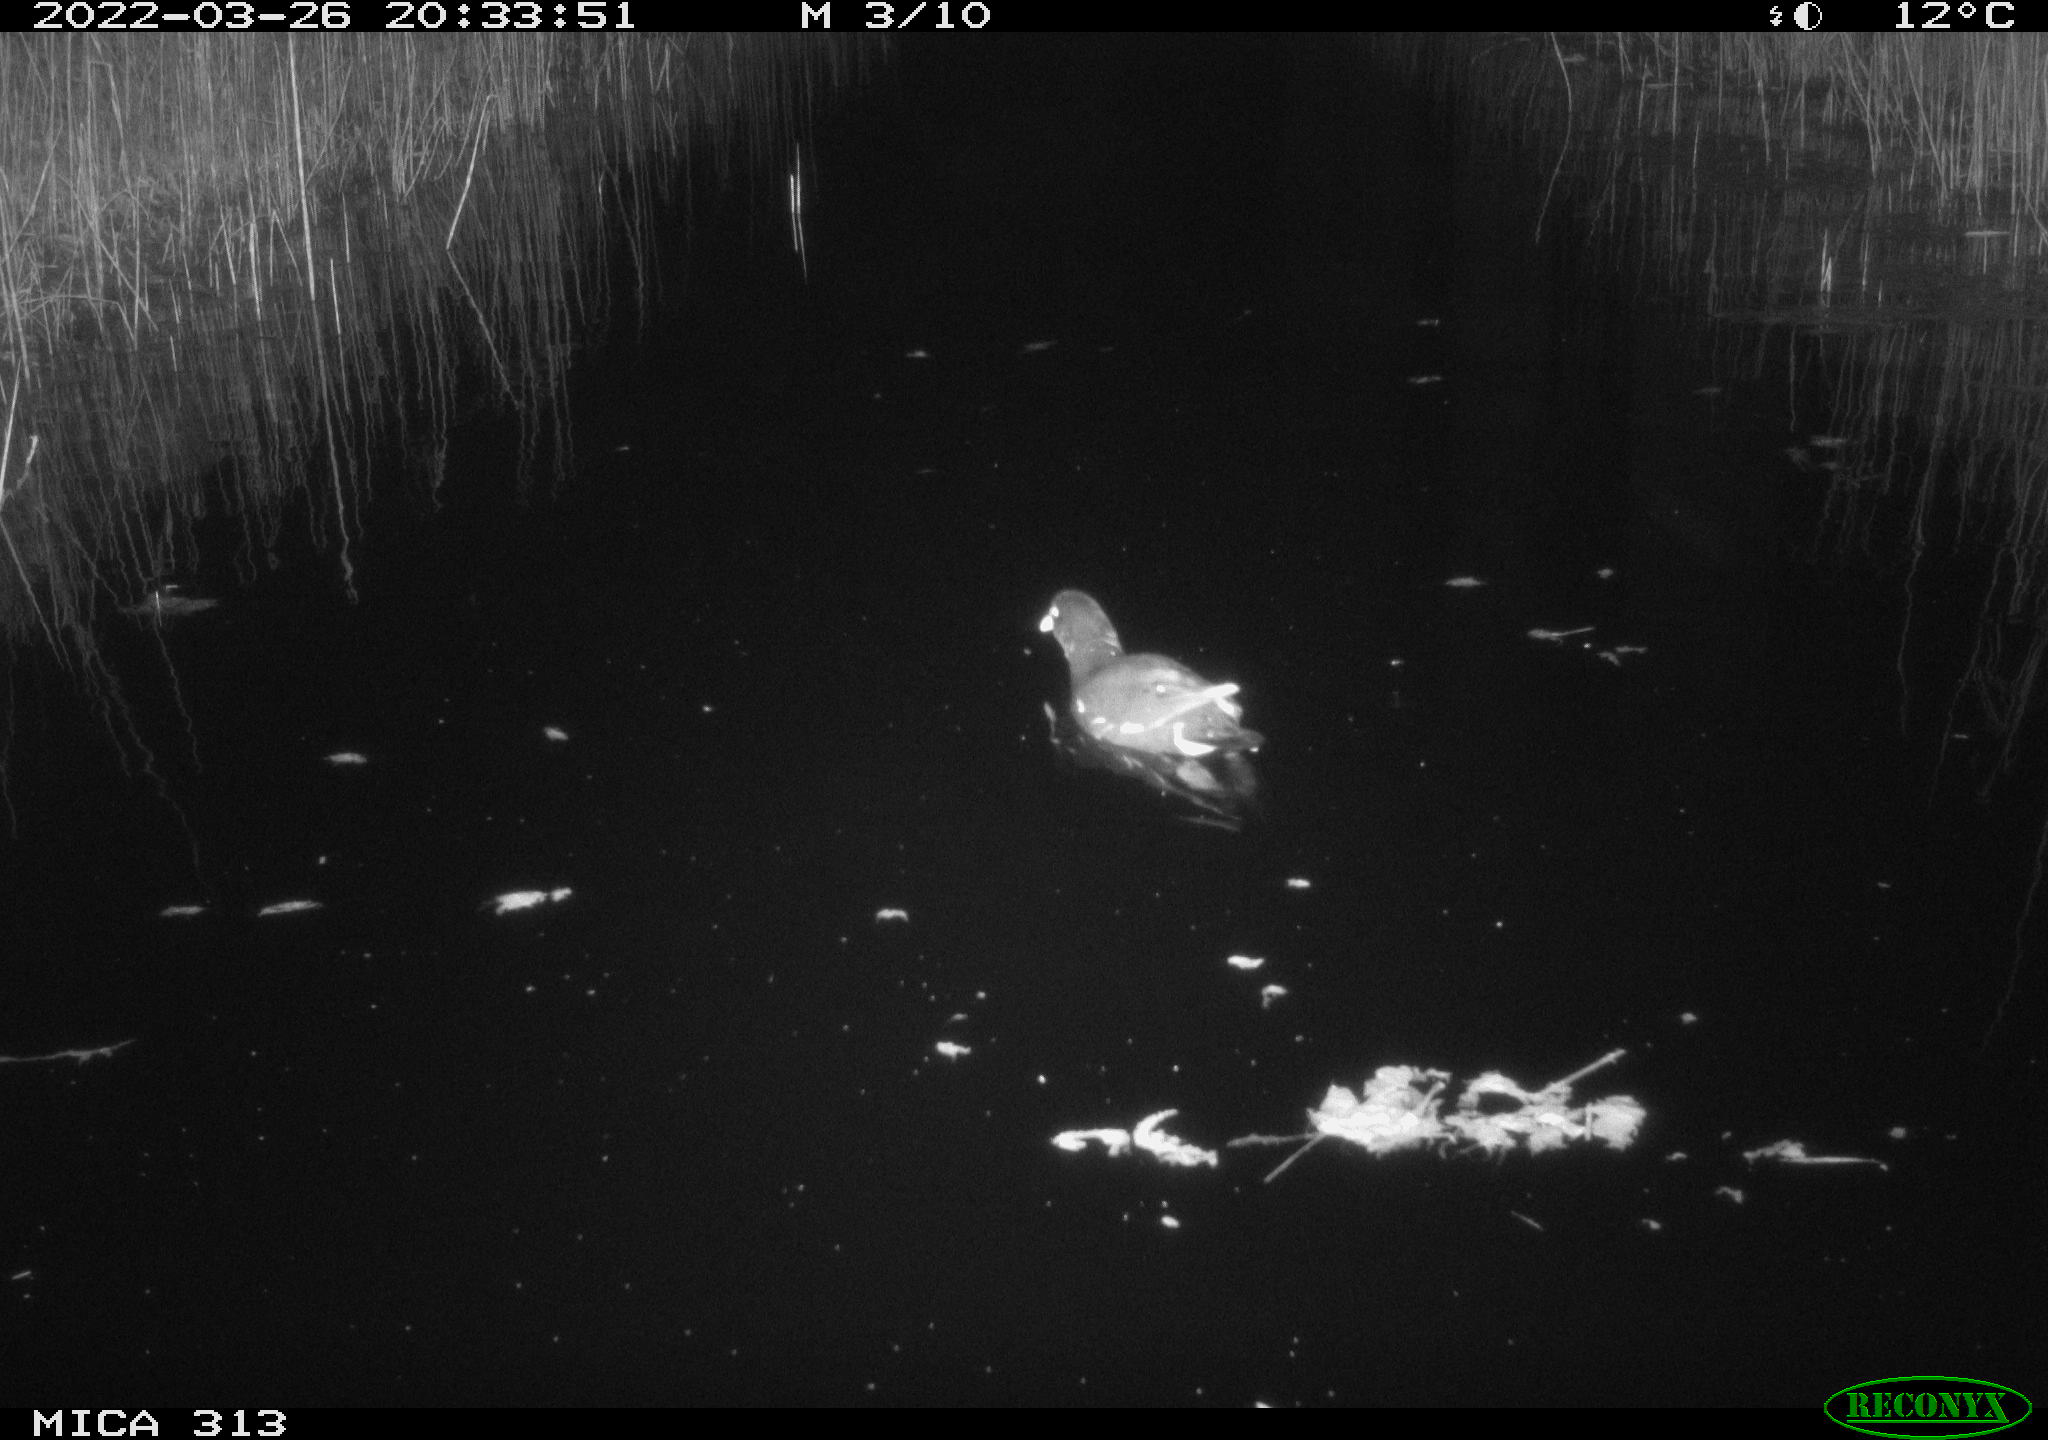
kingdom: Animalia
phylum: Chordata
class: Aves
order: Gruiformes
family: Rallidae
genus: Gallinula
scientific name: Gallinula chloropus
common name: Common moorhen
